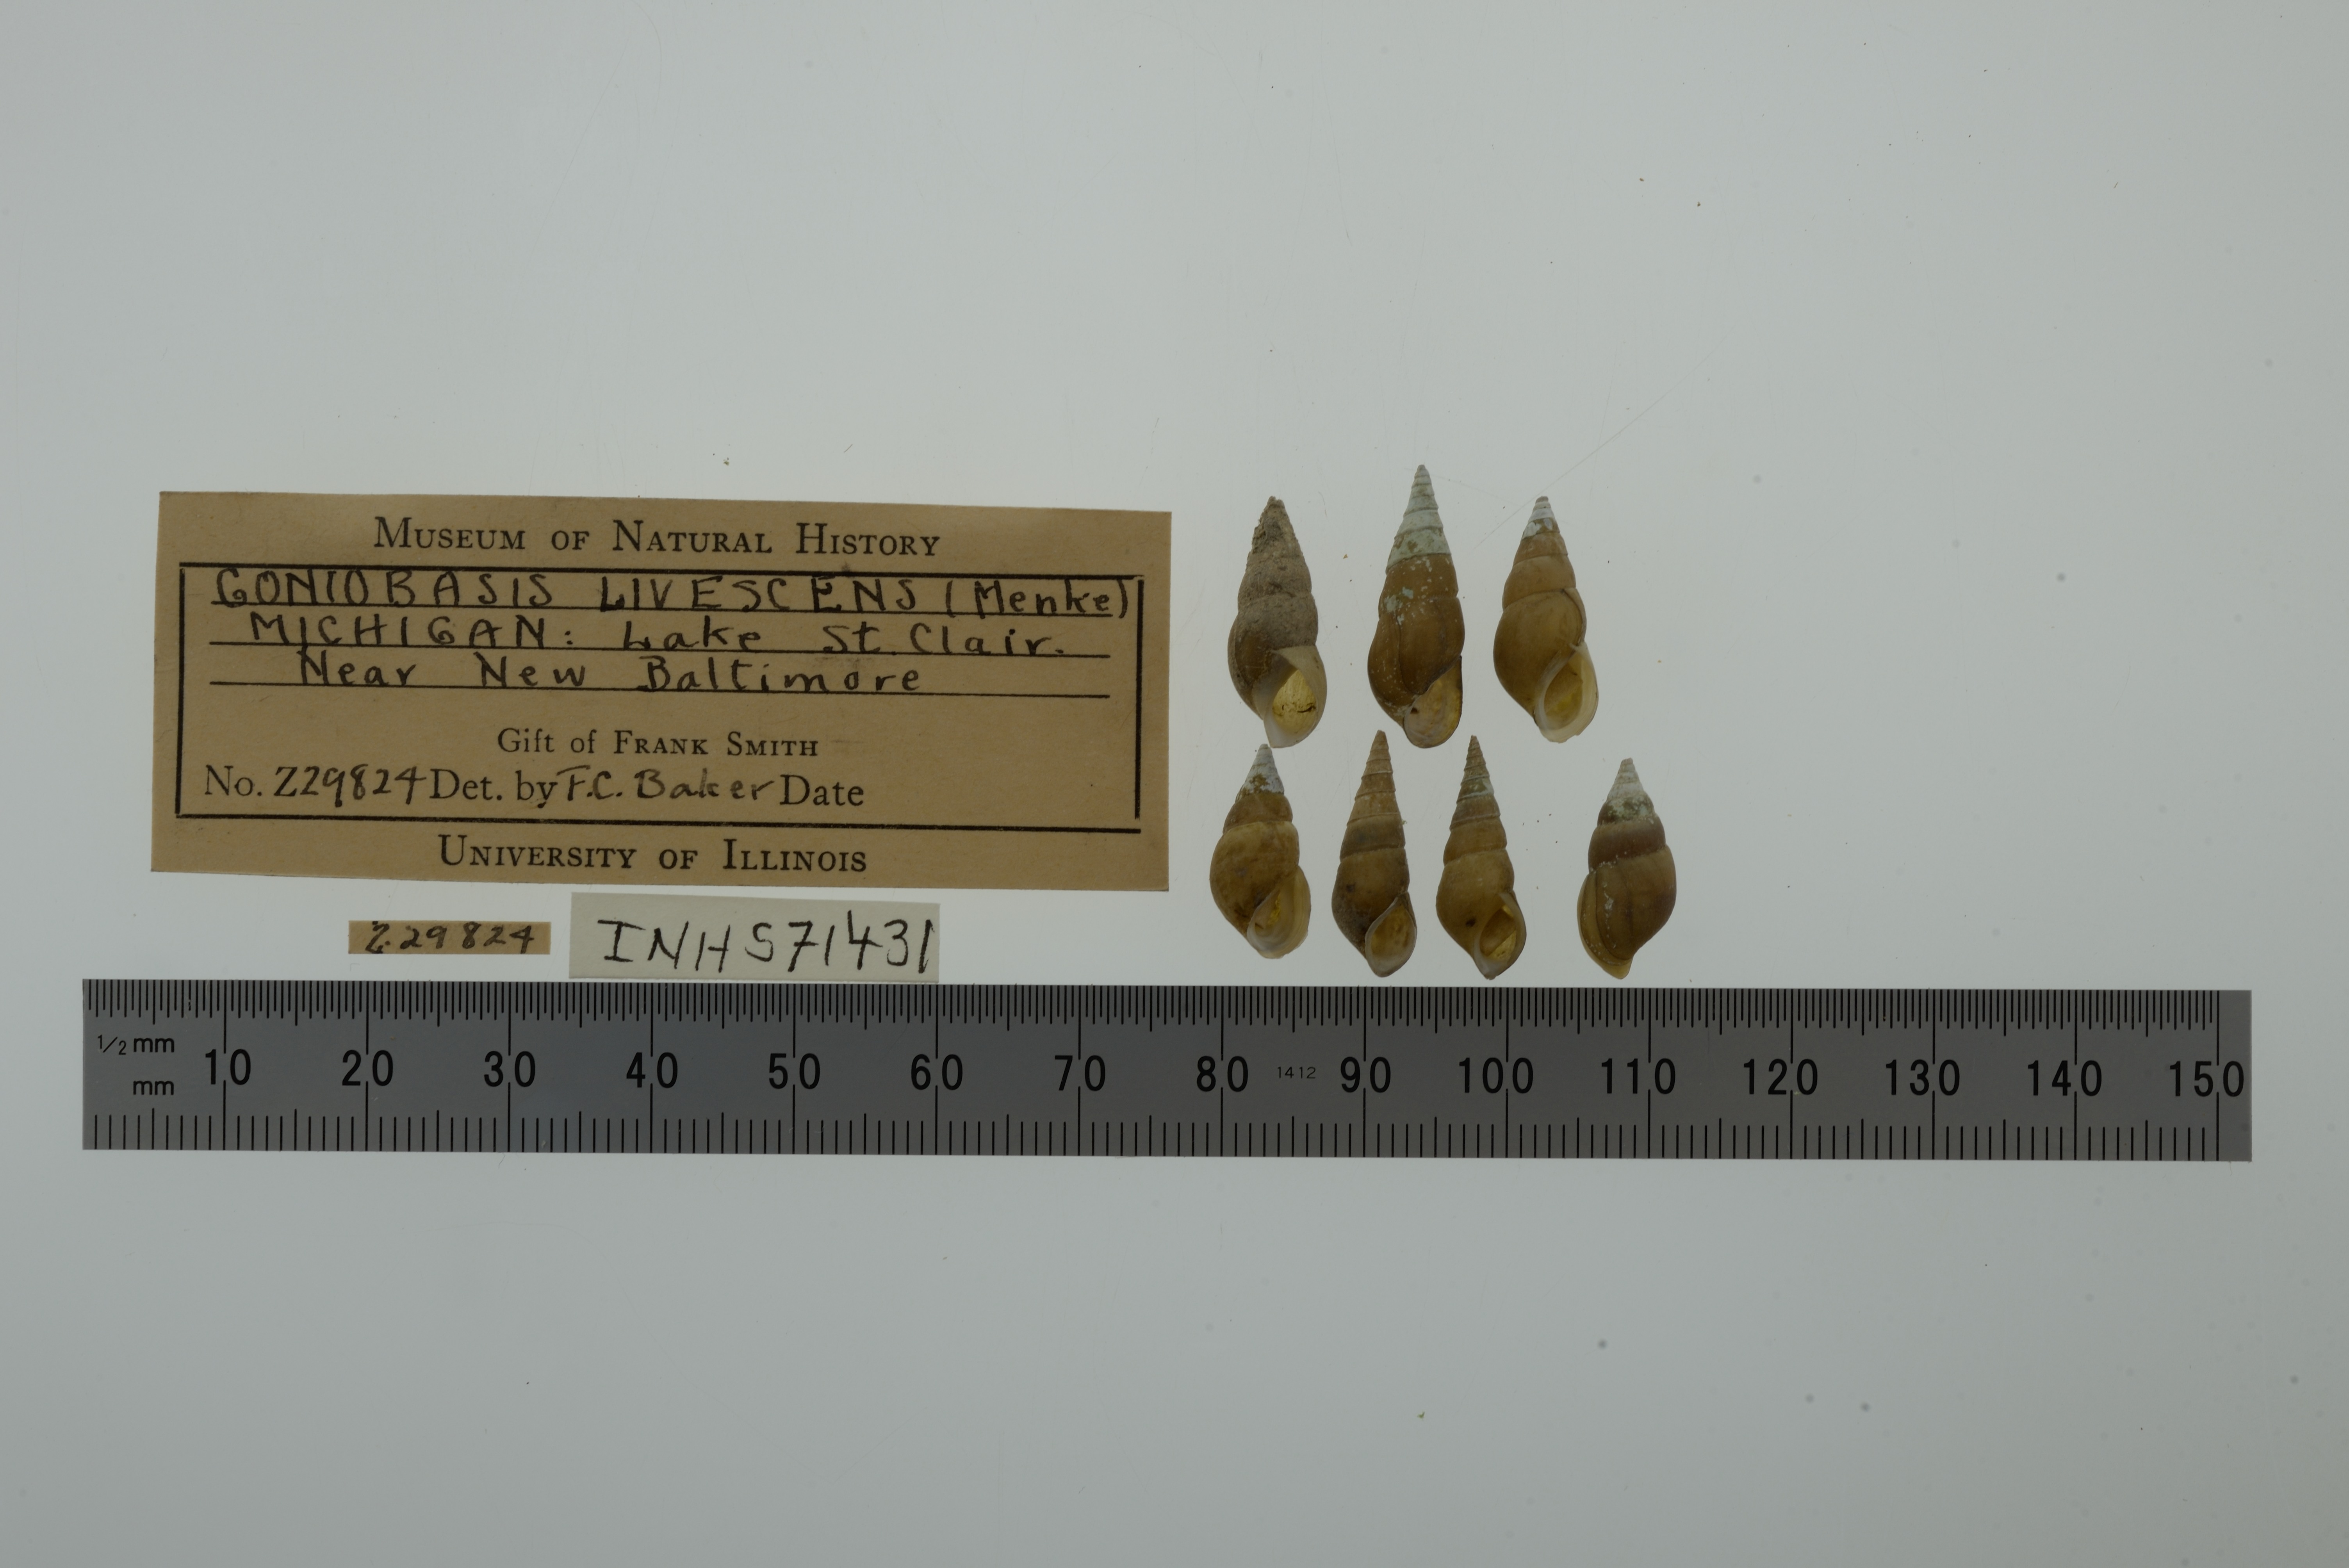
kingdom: Animalia
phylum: Mollusca
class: Gastropoda
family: Pleuroceridae
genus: Elimia
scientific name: Elimia livescens
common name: Liver elimia
